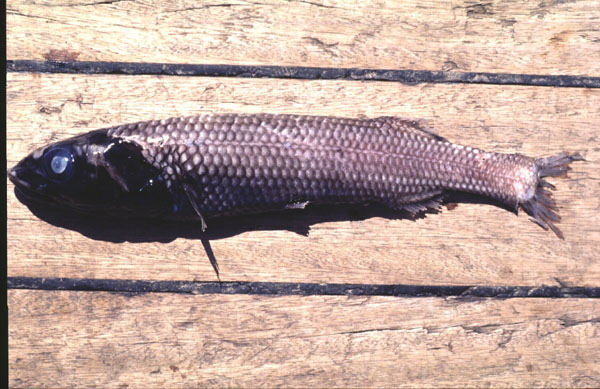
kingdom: Animalia
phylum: Chordata
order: Osmeriformes
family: Alepocephalidae
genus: Alepocephalus
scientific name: Alepocephalus australis
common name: Small scaled brown slickhead
